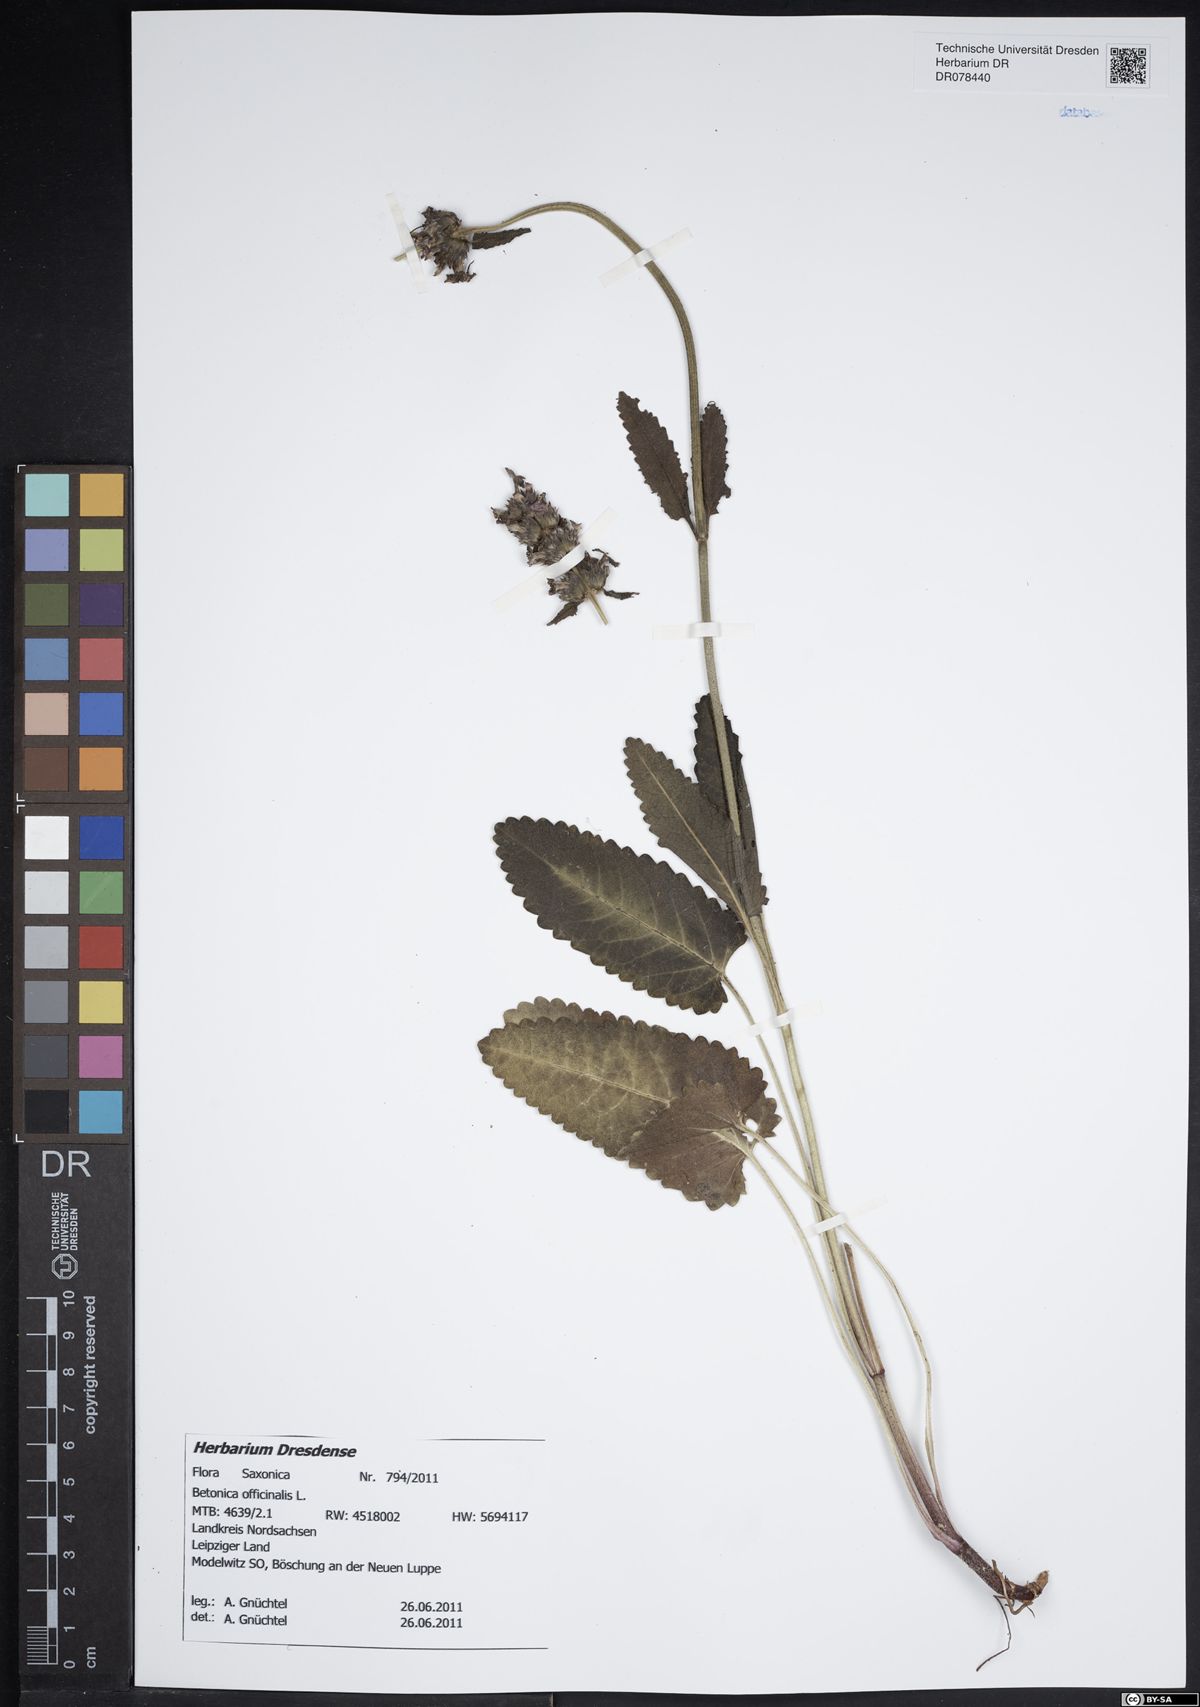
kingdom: Plantae
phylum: Tracheophyta
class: Magnoliopsida
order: Lamiales
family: Lamiaceae
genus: Betonica
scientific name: Betonica officinalis
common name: Bishop's-wort
